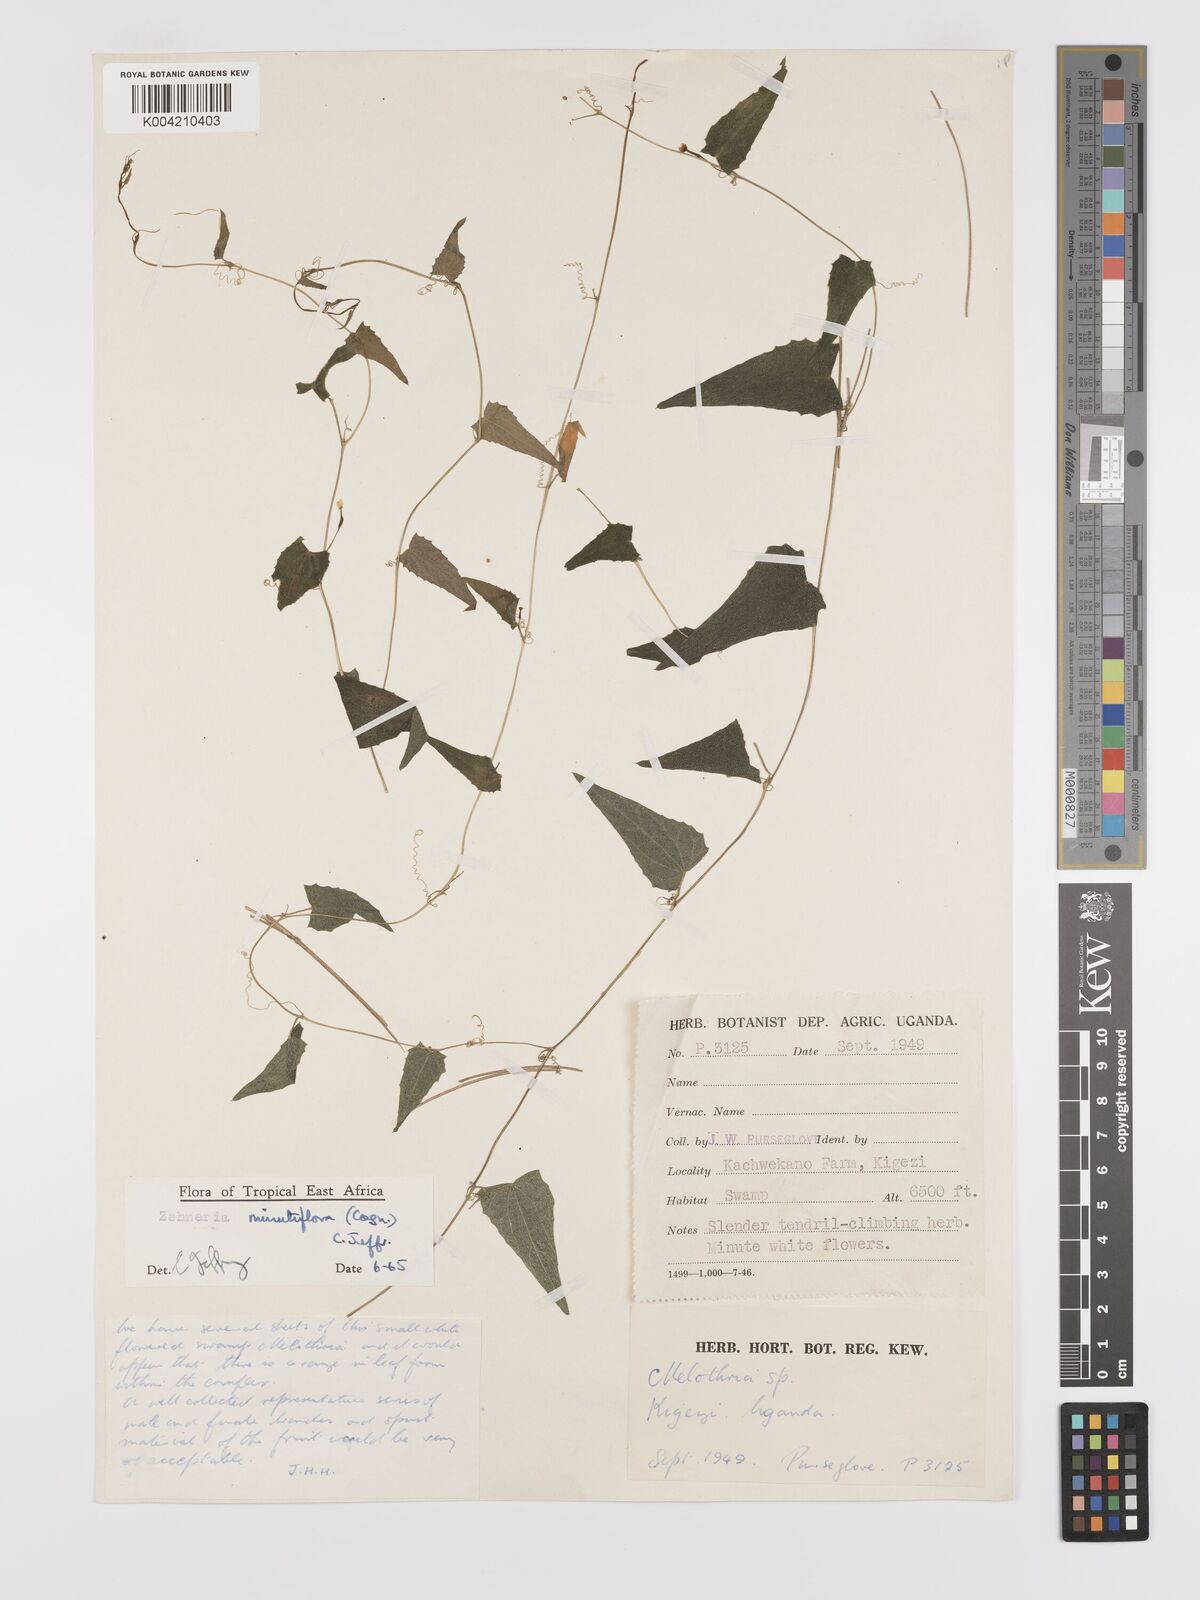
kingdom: Plantae
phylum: Tracheophyta
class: Magnoliopsida
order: Cucurbitales
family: Cucurbitaceae
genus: Zehneria
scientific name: Zehneria minutiflora
